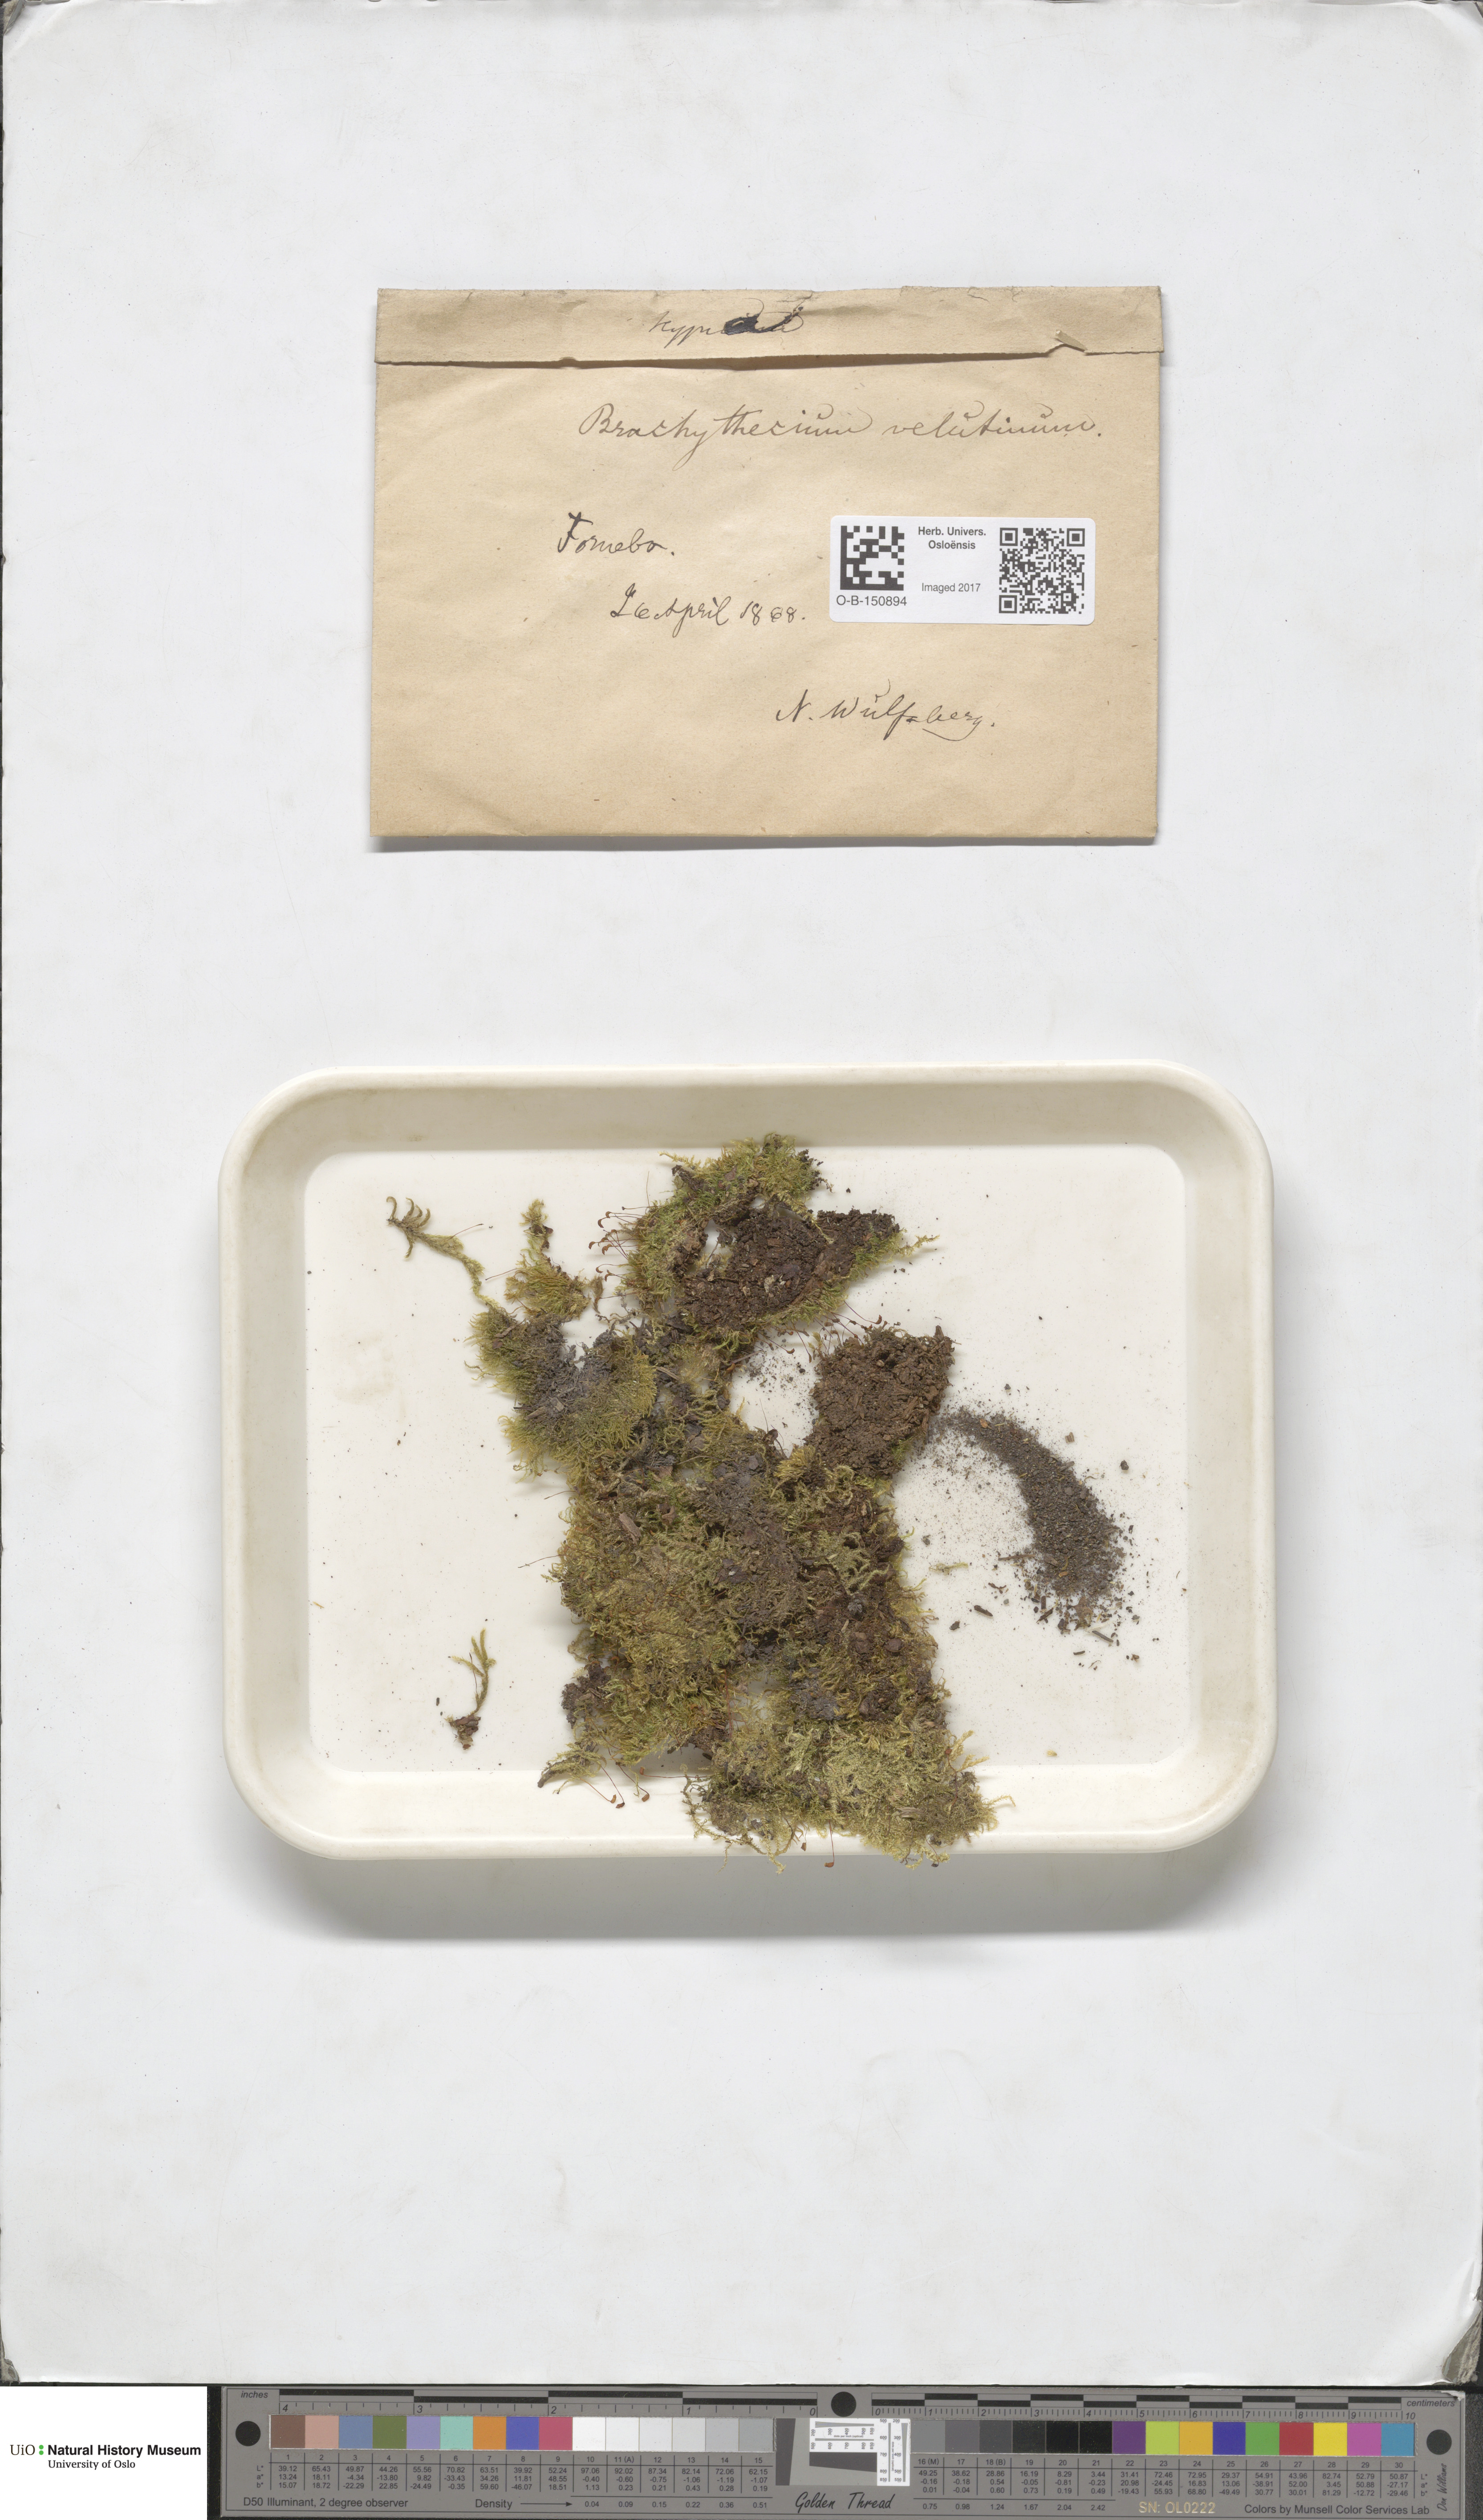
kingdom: Plantae
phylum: Bryophyta
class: Bryopsida
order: Hypnales
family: Brachytheciaceae
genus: Brachytheciastrum
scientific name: Brachytheciastrum velutinum
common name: Velvet feather-moss
